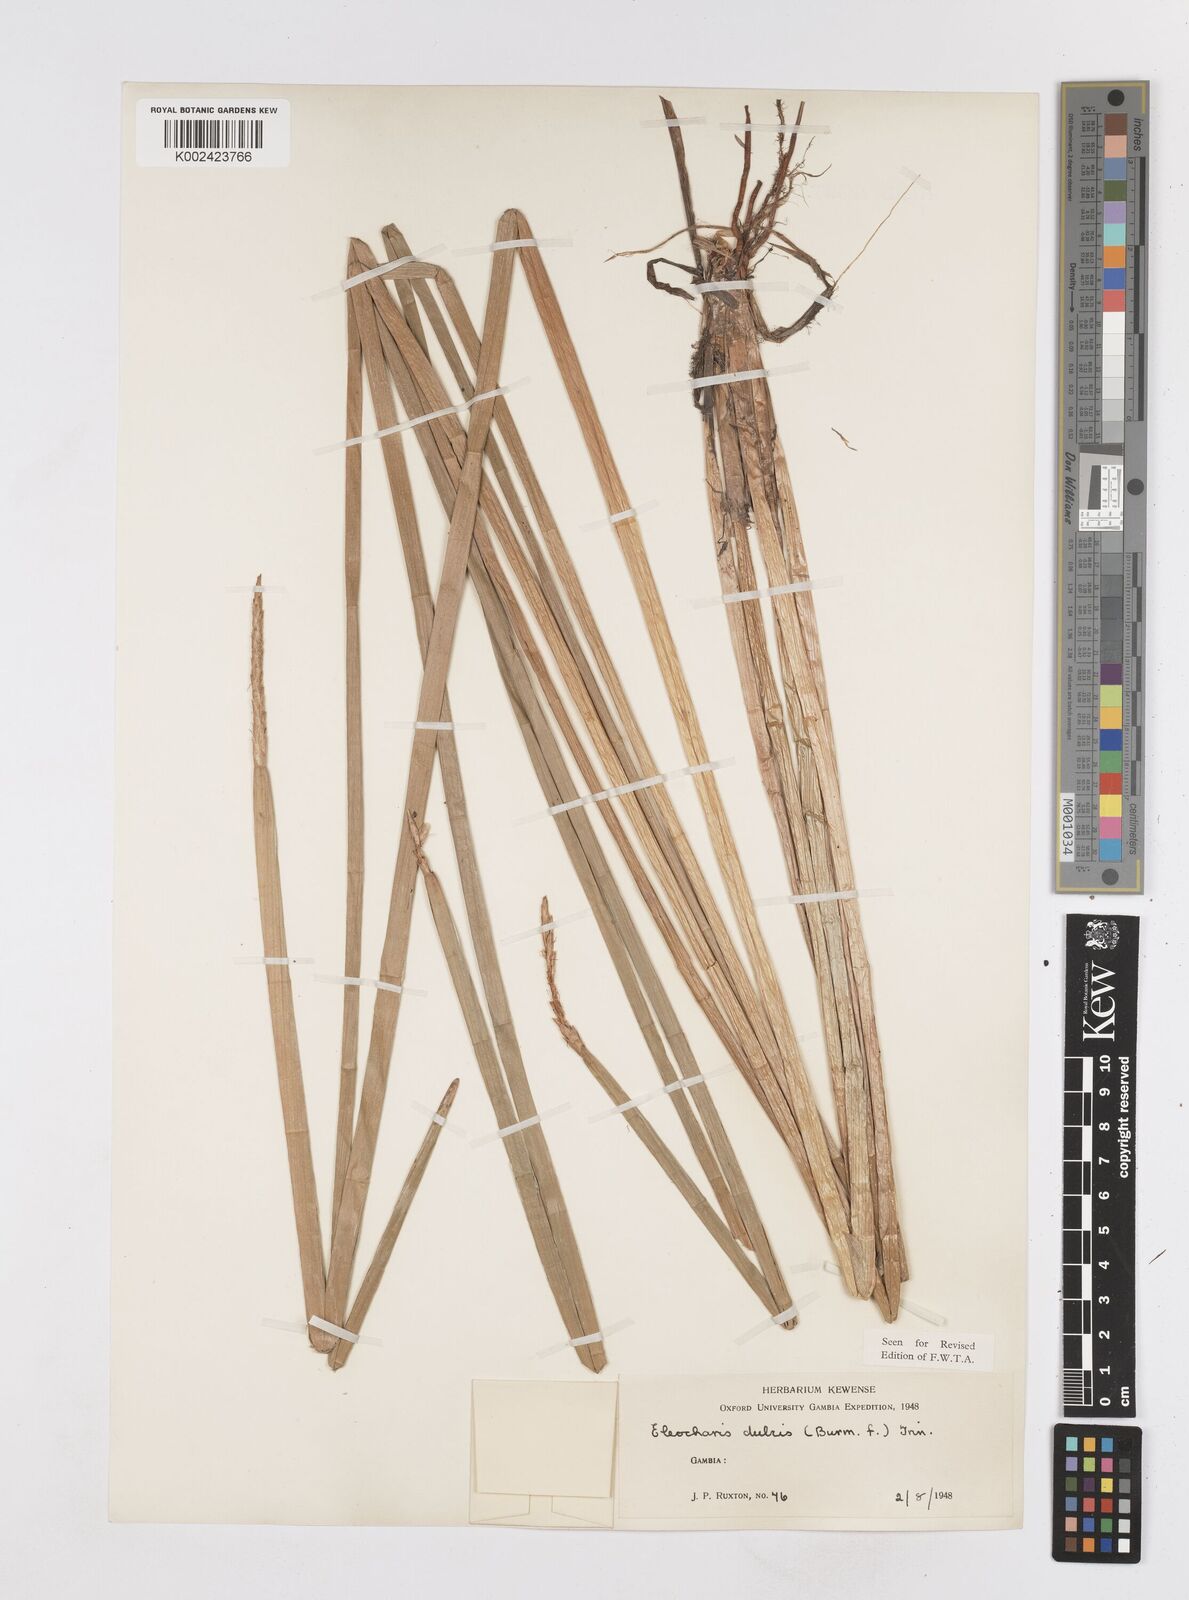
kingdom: Plantae
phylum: Tracheophyta
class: Liliopsida
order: Poales
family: Cyperaceae
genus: Eleocharis
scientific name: Eleocharis dulcis
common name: Chinese water chestnut
